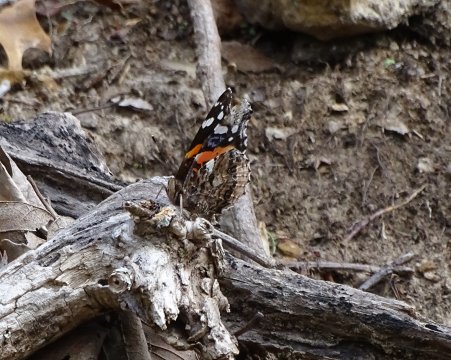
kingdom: Animalia
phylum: Arthropoda
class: Insecta
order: Lepidoptera
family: Nymphalidae
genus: Vanessa
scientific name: Vanessa atalanta
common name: Red Admiral
